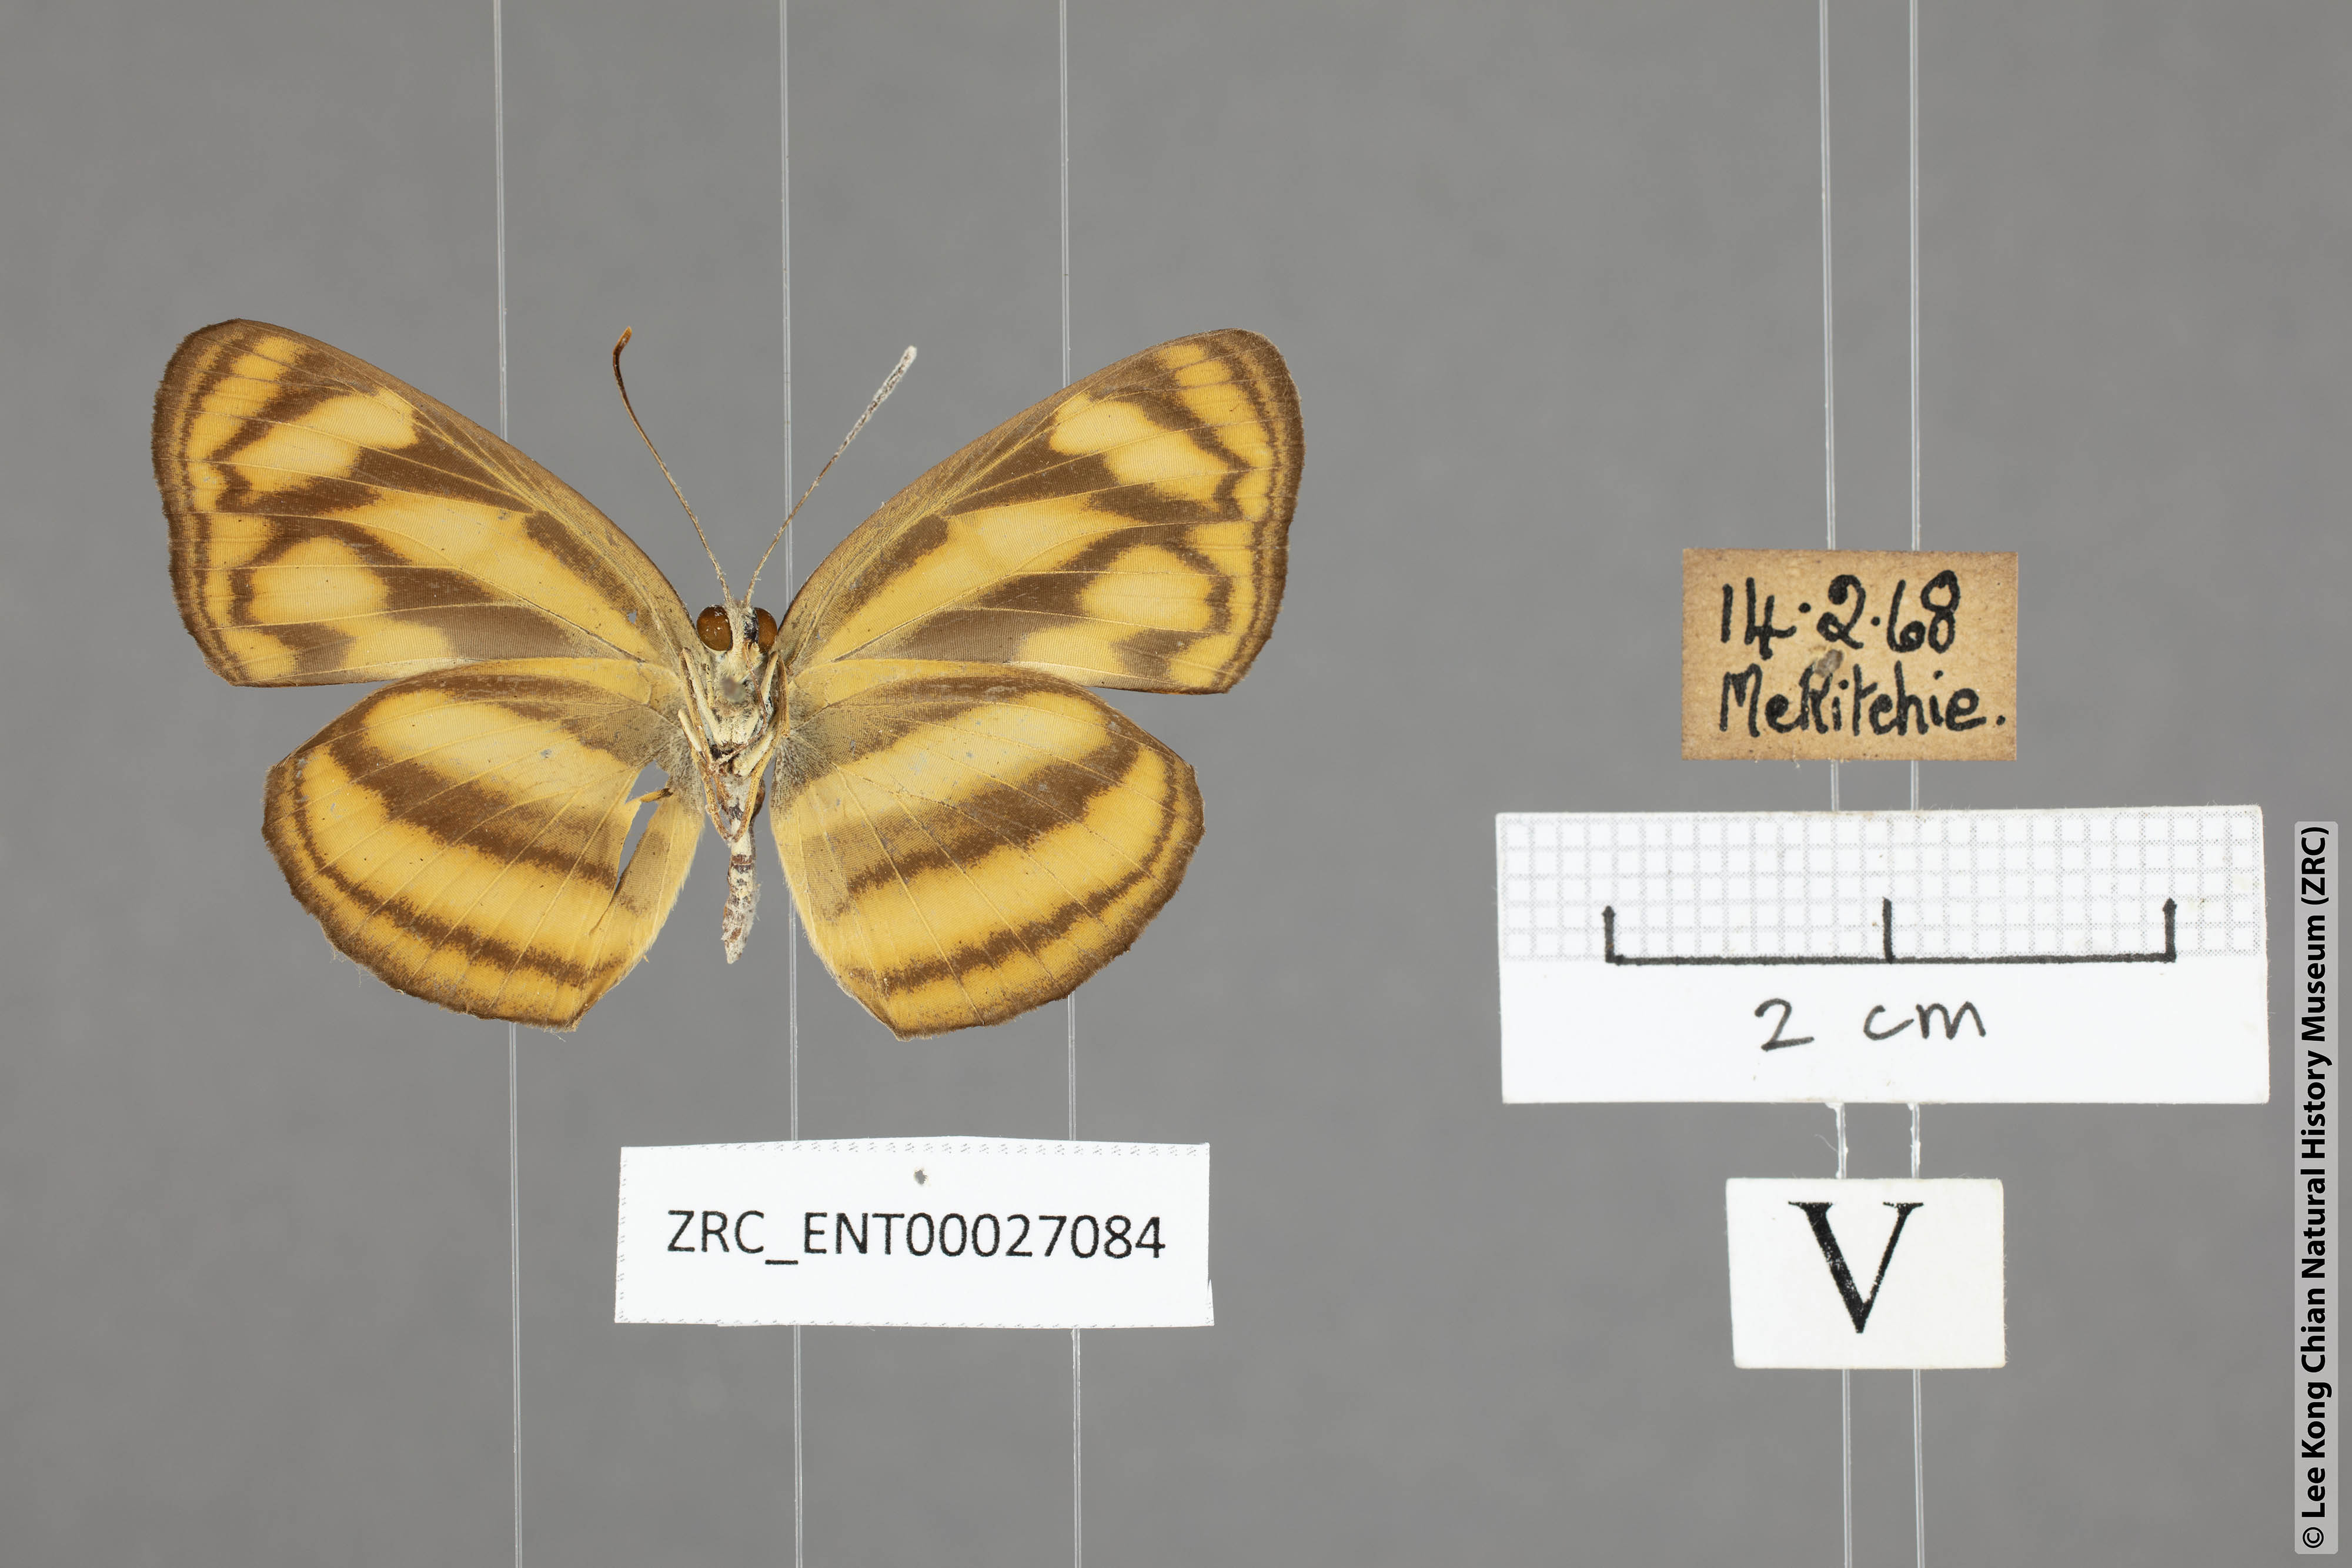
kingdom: Animalia
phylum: Arthropoda
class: Insecta
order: Lepidoptera
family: Nymphalidae
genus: Lasippa
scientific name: Lasippa heliodore
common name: Burmese lascar
